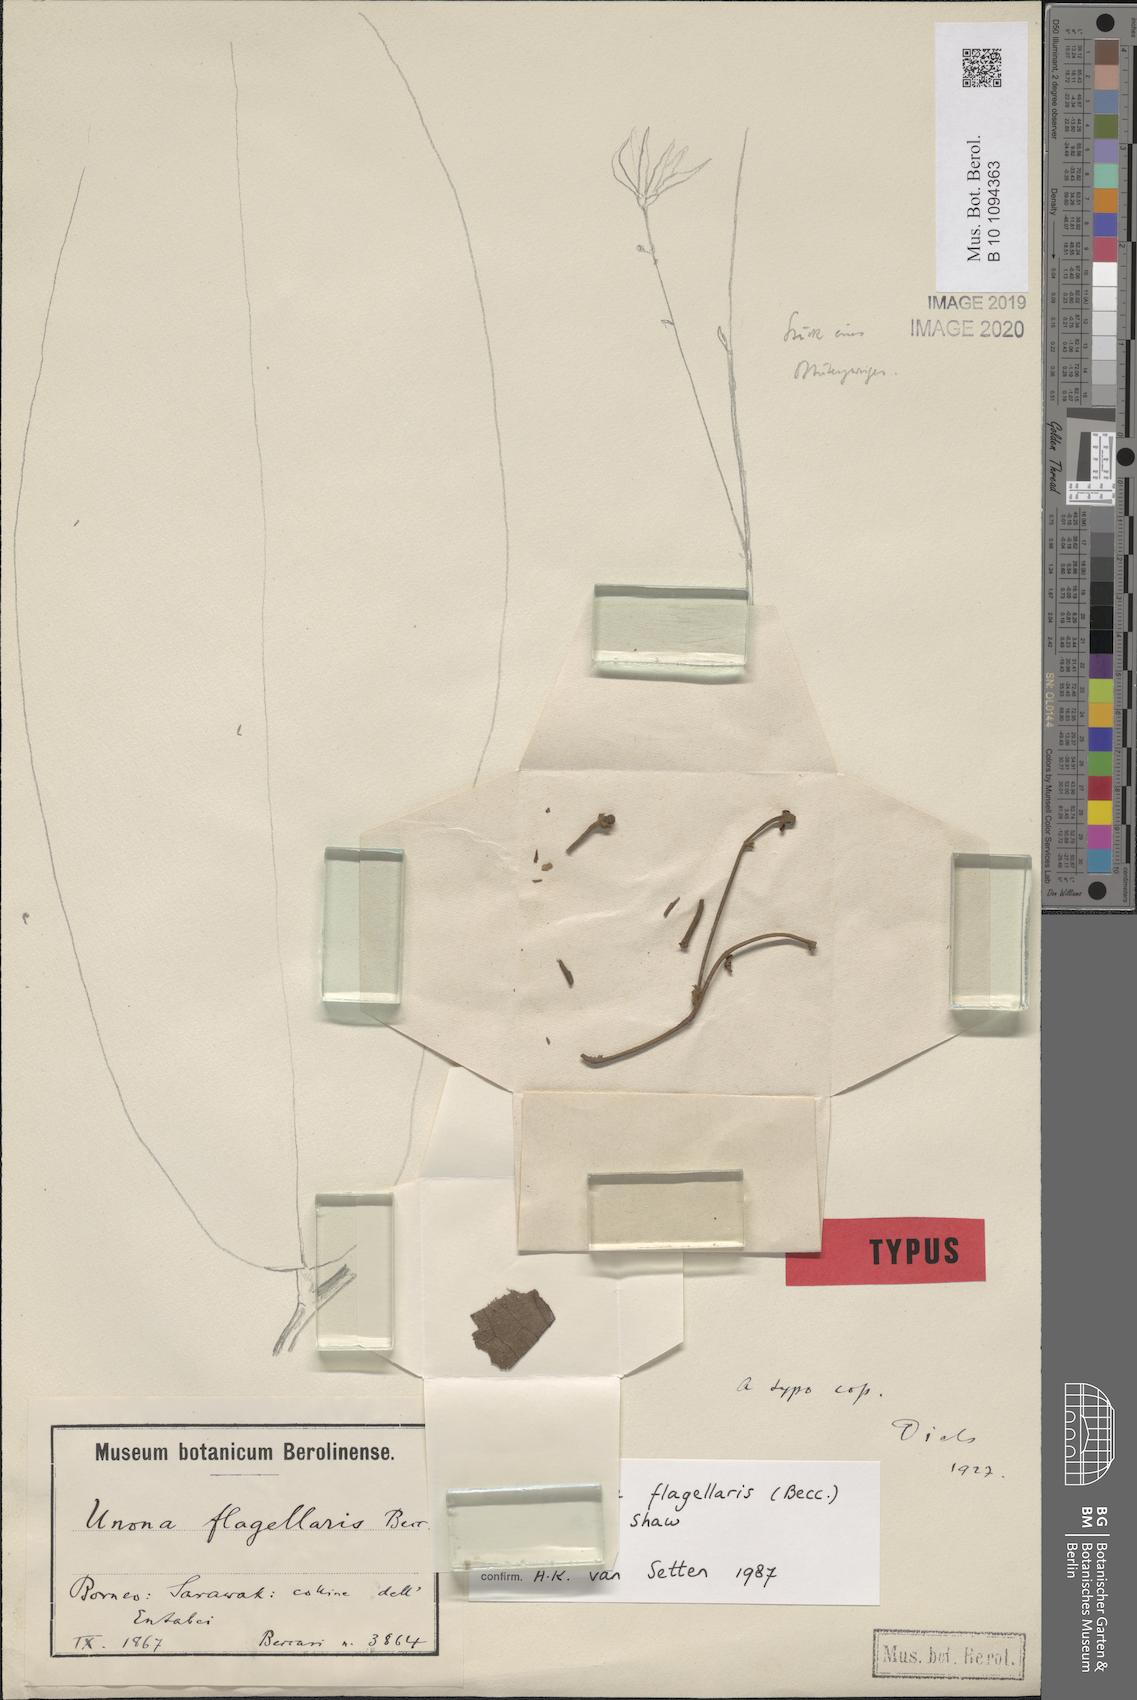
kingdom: Plantae
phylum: Tracheophyta
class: Magnoliopsida
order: Magnoliales
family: Annonaceae
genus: Polyalthia
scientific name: Polyalthia flagellaris
